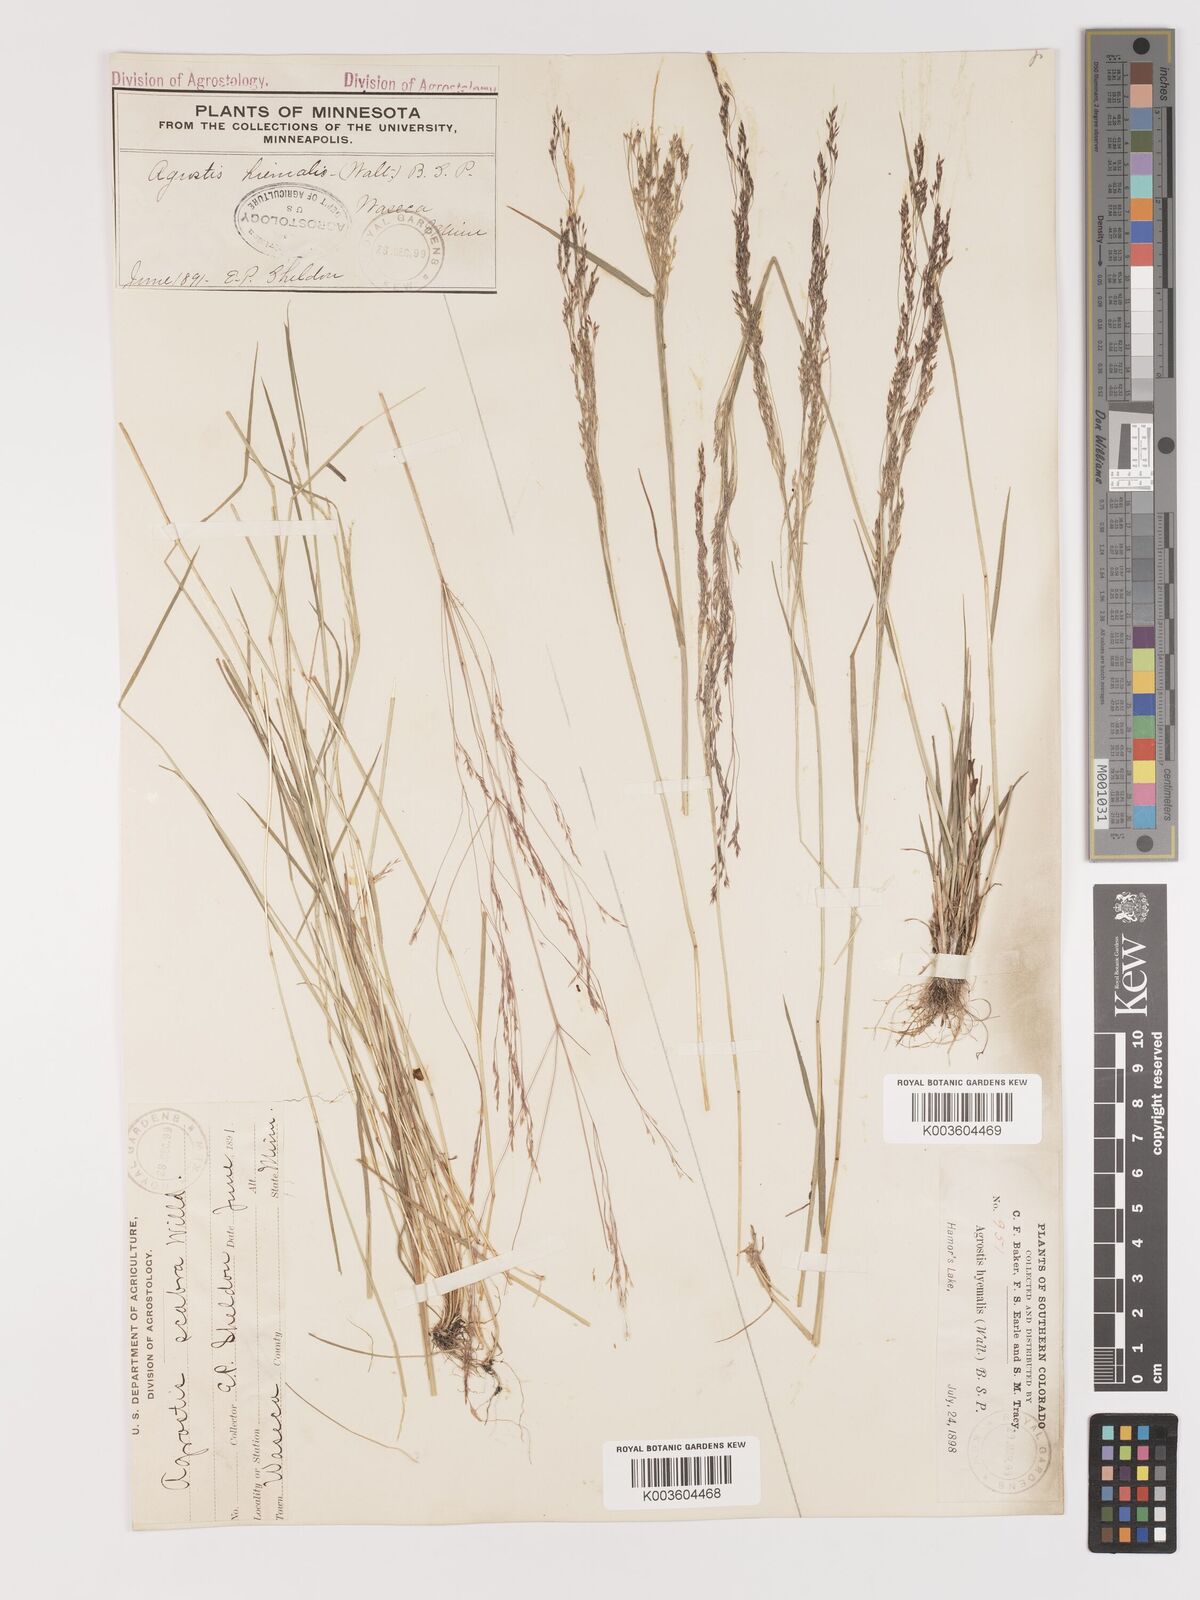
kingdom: Plantae
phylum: Tracheophyta
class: Liliopsida
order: Poales
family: Poaceae
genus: Agrostis
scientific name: Agrostis hyemalis
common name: Small bent
